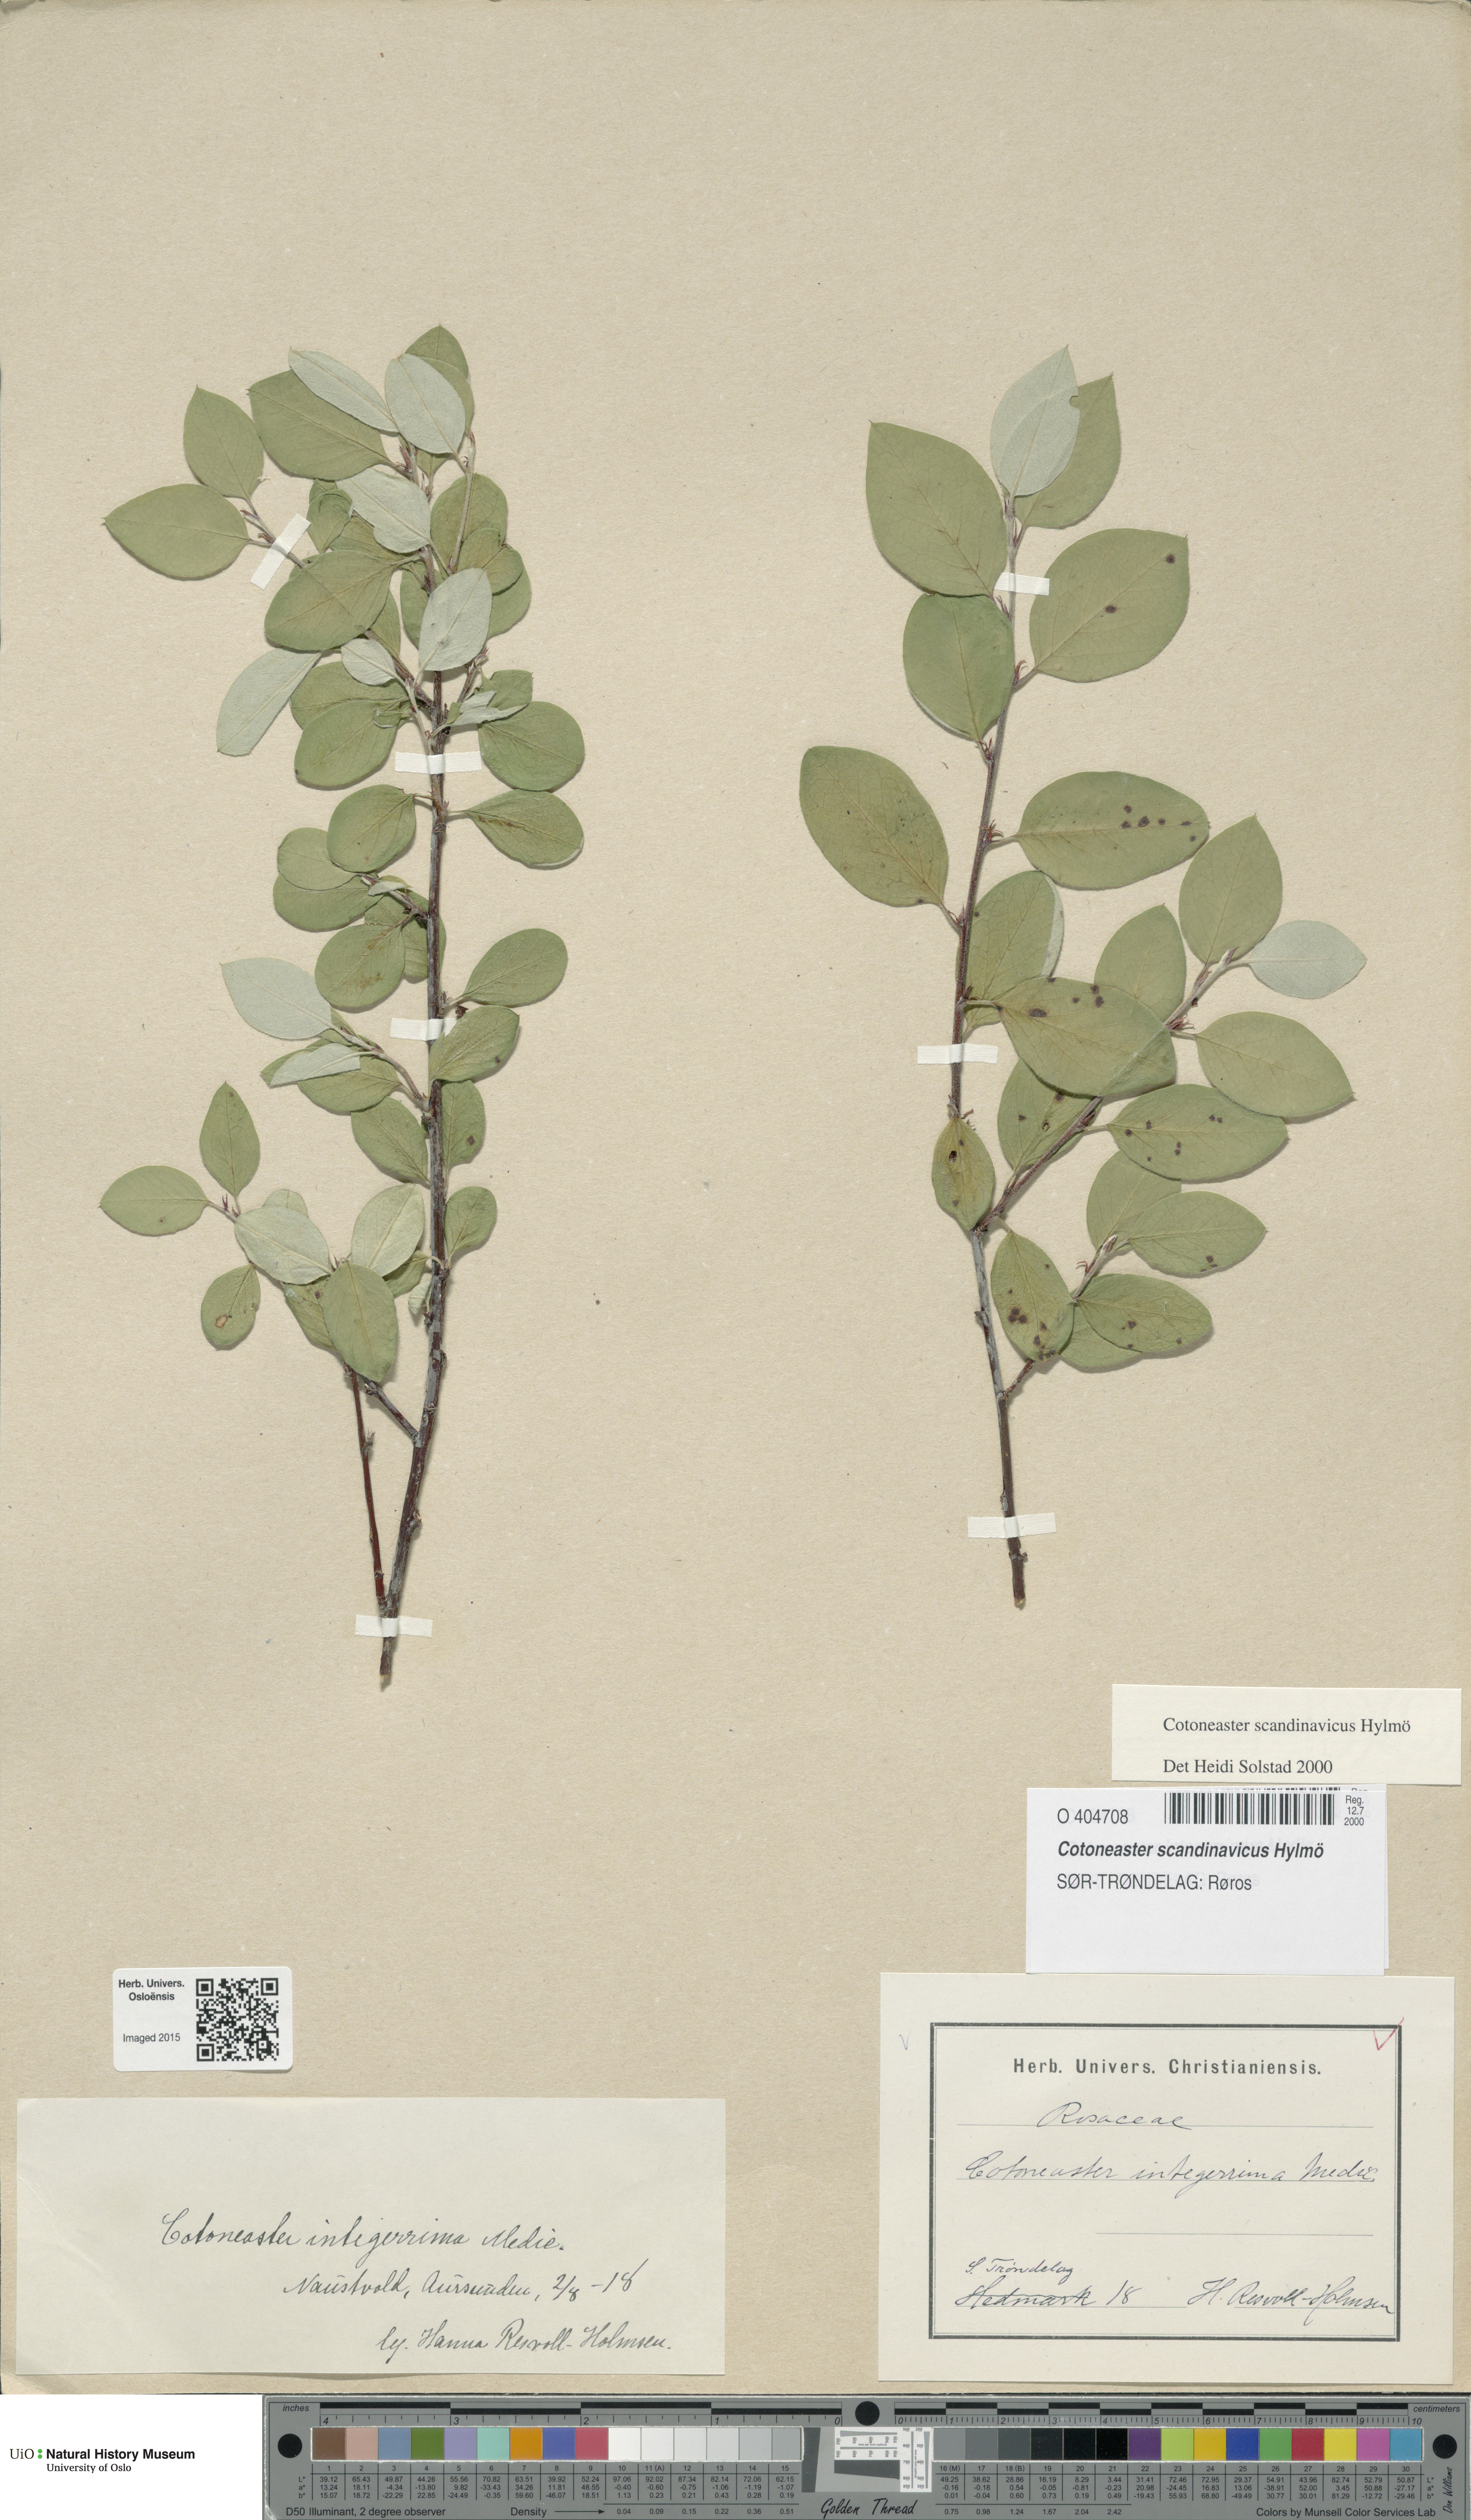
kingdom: Plantae
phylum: Tracheophyta
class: Magnoliopsida
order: Rosales
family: Rosaceae
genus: Cotoneaster
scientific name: Cotoneaster integerrimus
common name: Wild cotoneaster
